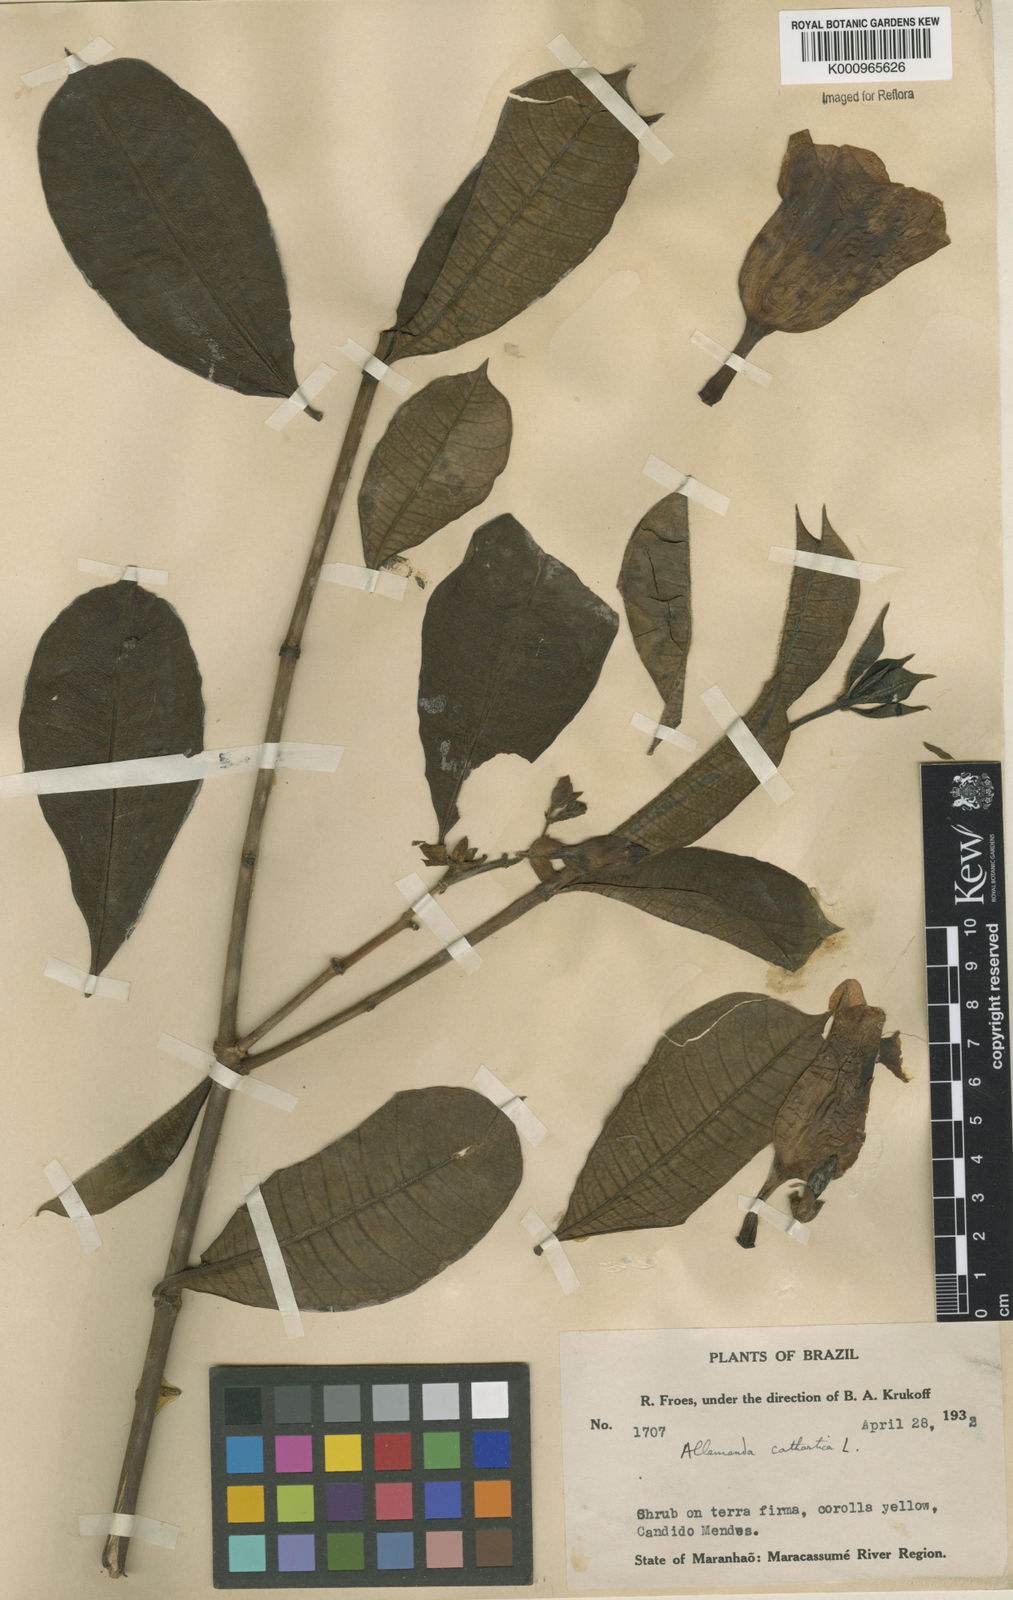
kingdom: Plantae
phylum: Tracheophyta
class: Magnoliopsida
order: Gentianales
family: Apocynaceae
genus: Allamanda
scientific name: Allamanda cathartica
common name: Golden trumpet
